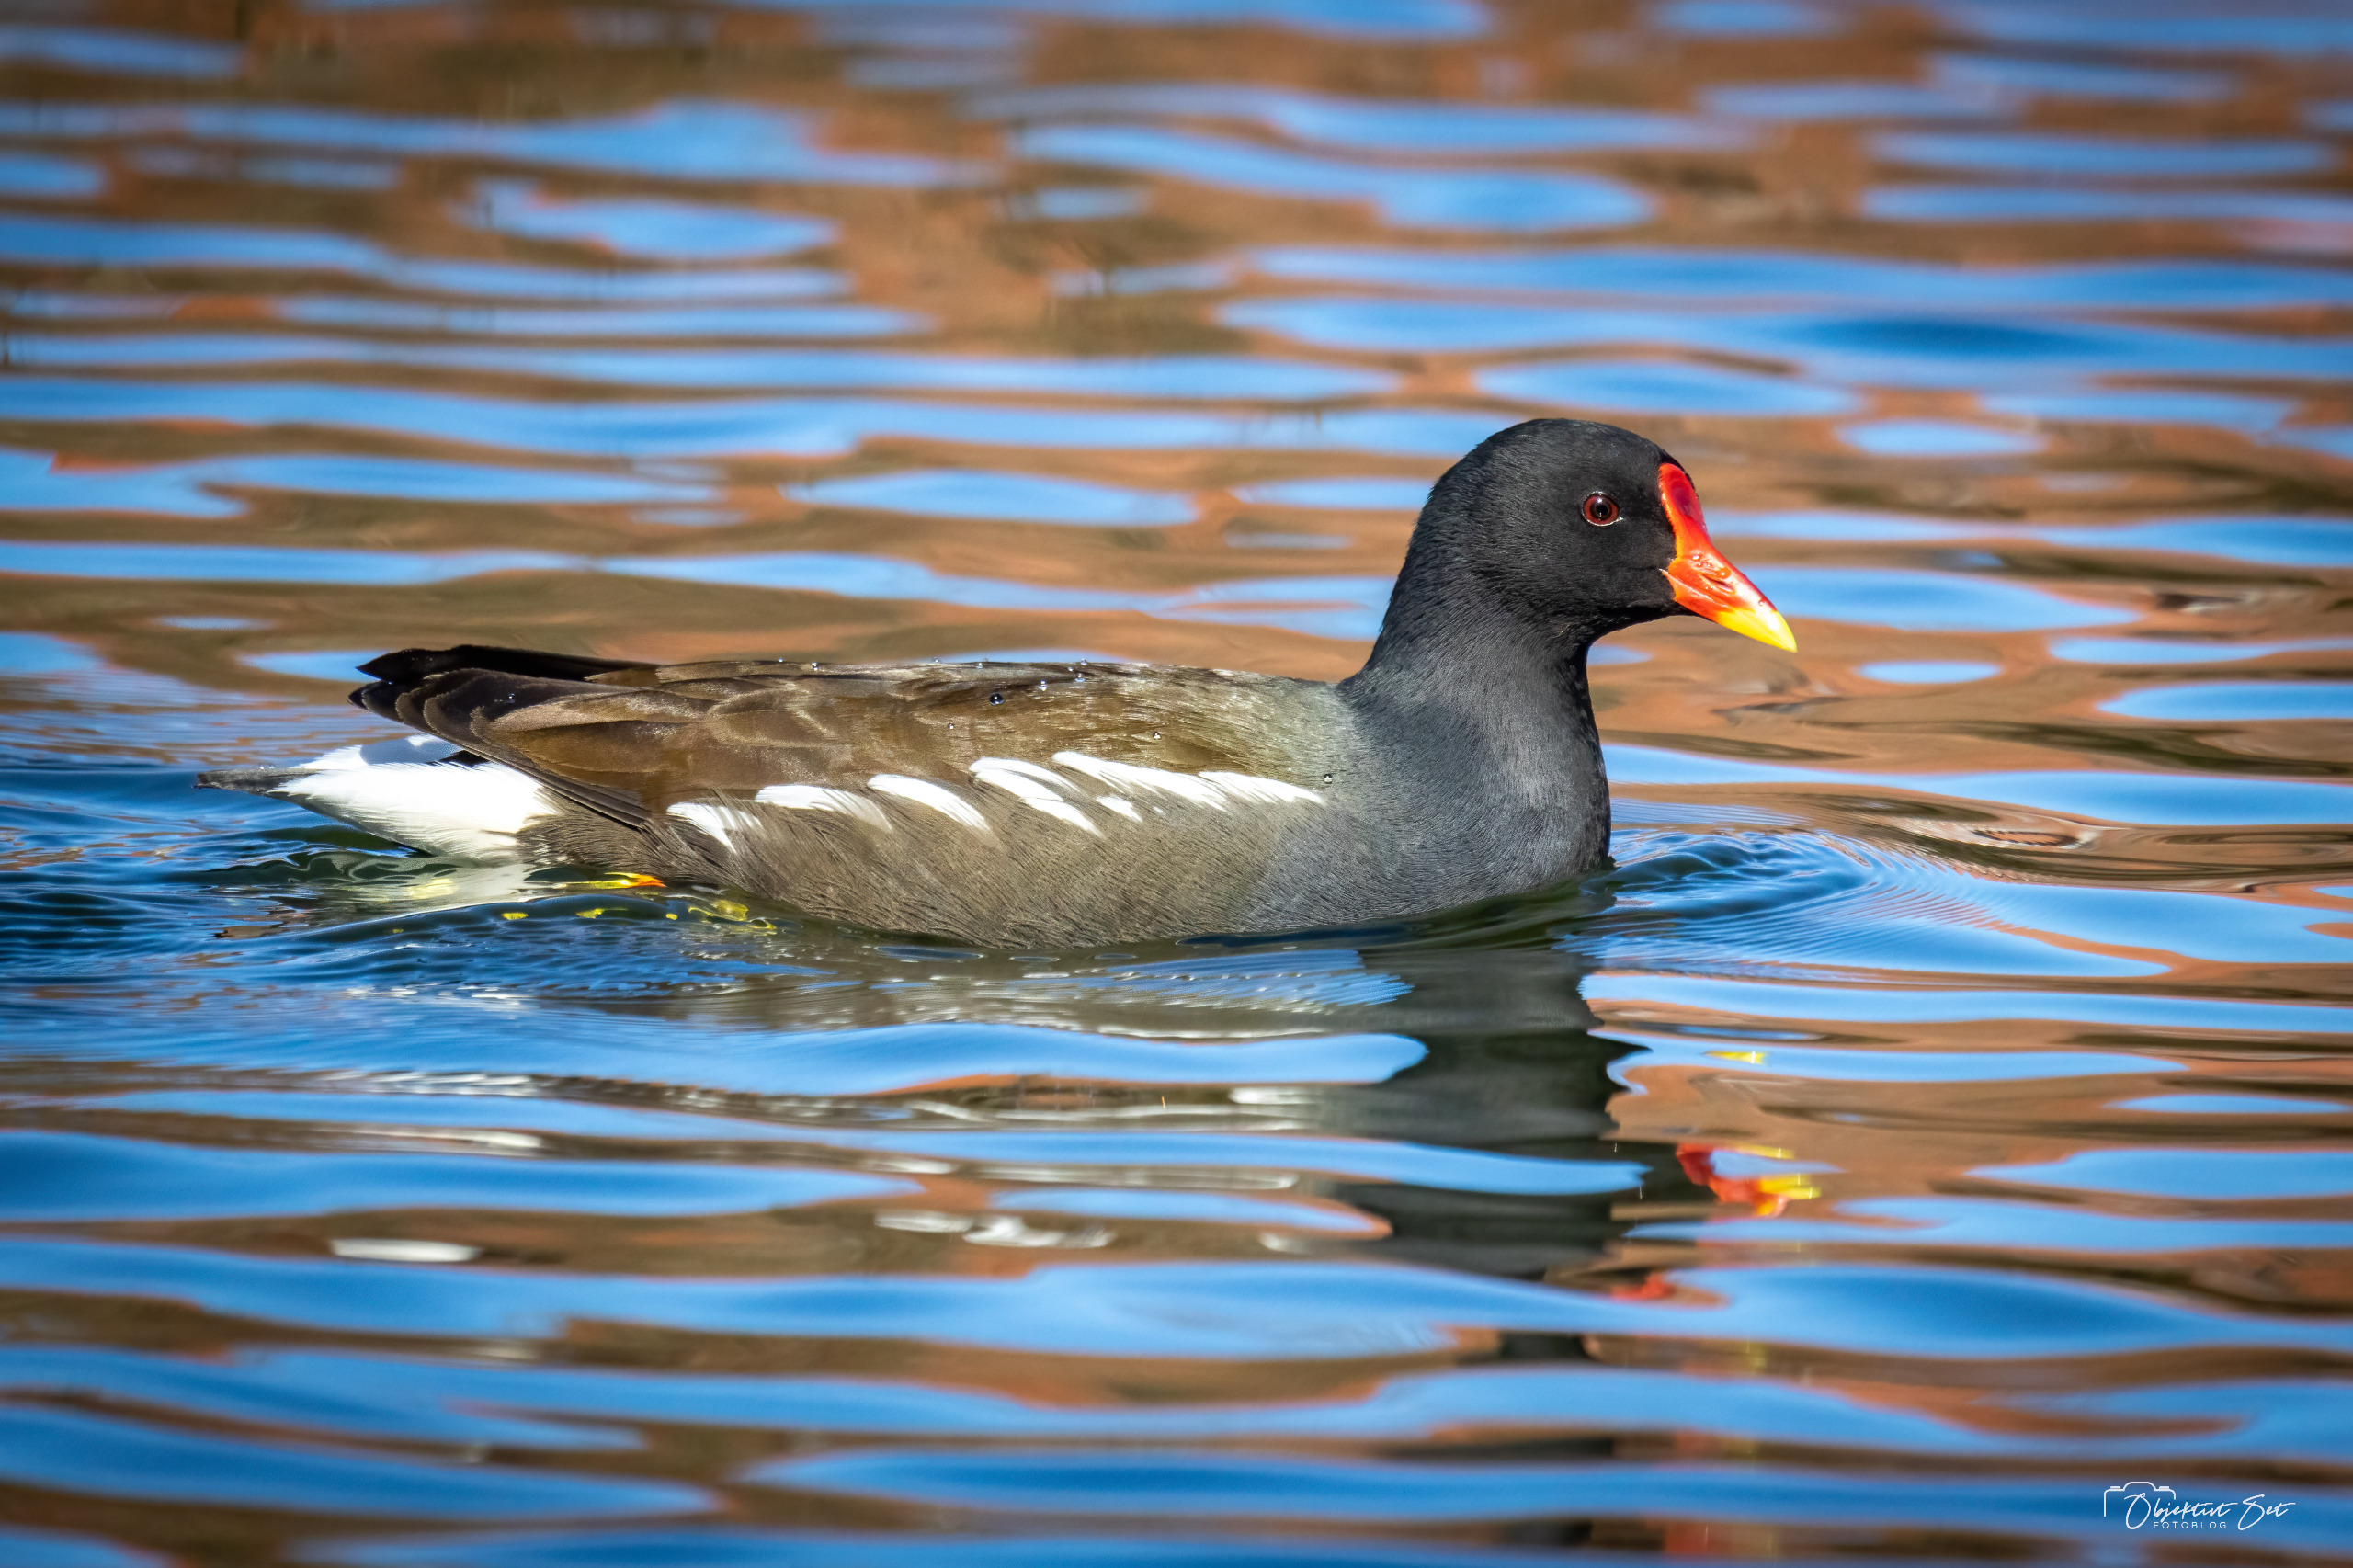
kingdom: Animalia
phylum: Chordata
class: Aves
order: Gruiformes
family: Rallidae
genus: Gallinula
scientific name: Gallinula chloropus
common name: Grønbenet rørhøne
